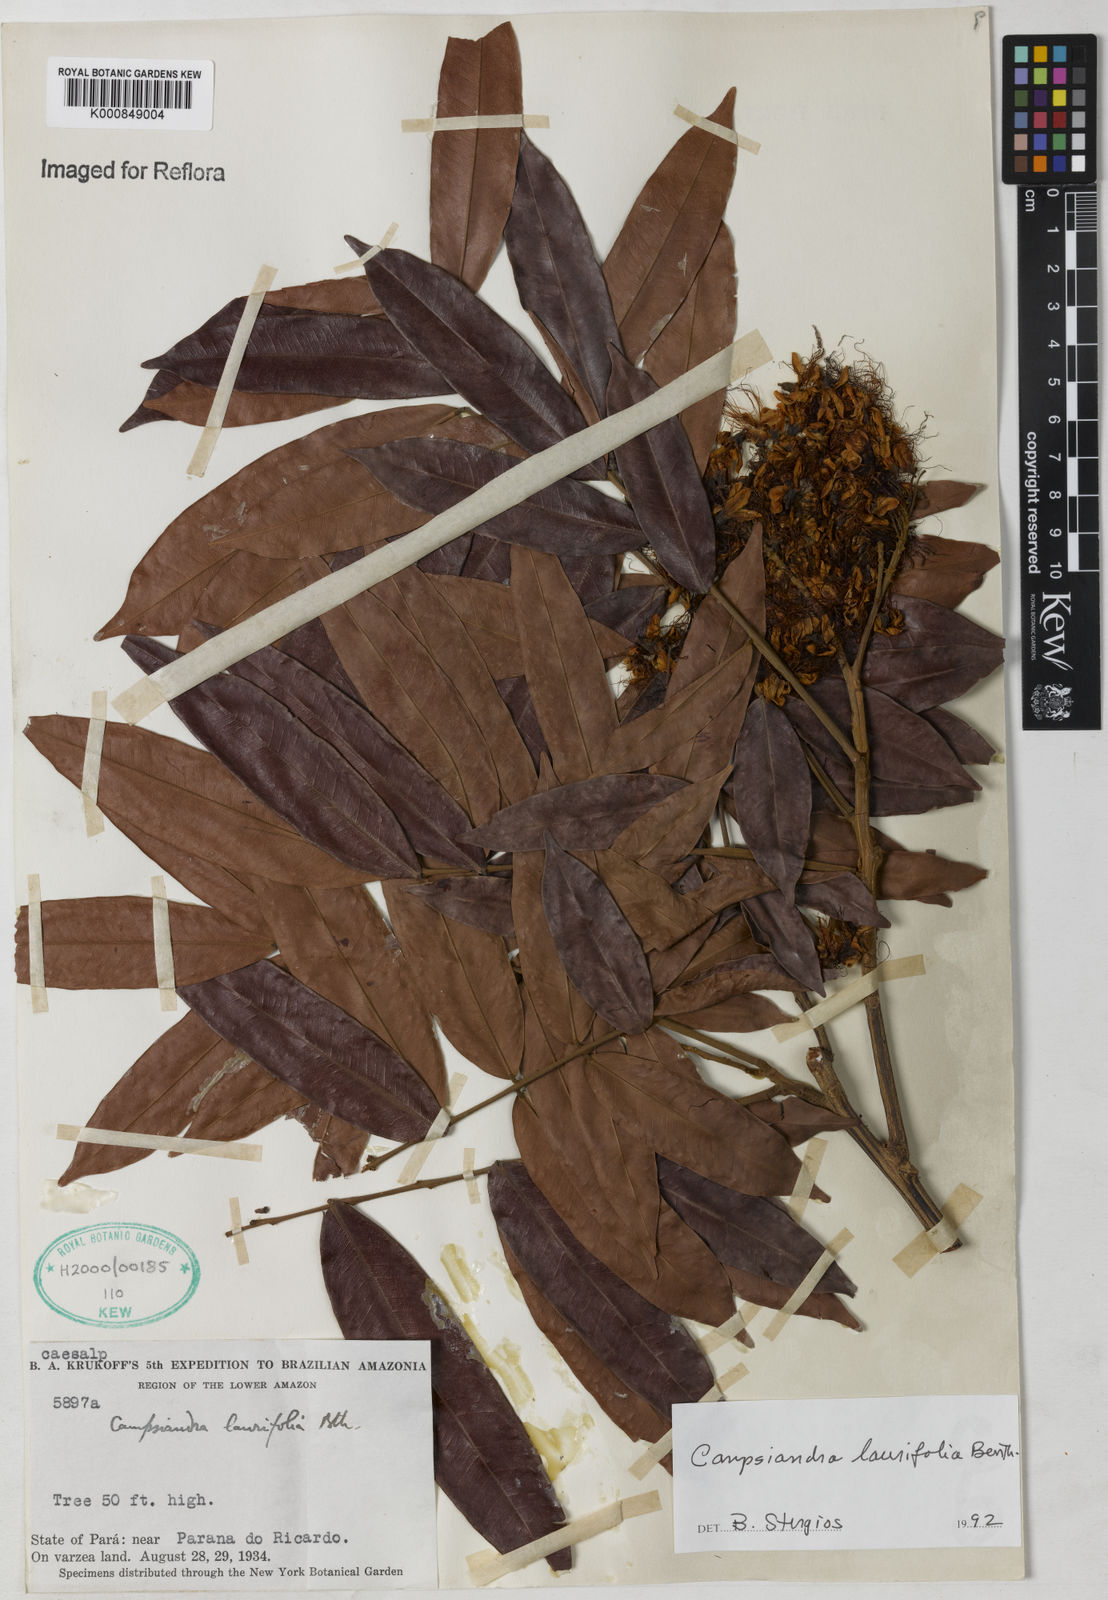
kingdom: Plantae
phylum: Tracheophyta
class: Magnoliopsida
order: Fabales
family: Fabaceae
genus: Campsiandra
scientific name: Campsiandra laurifolia
